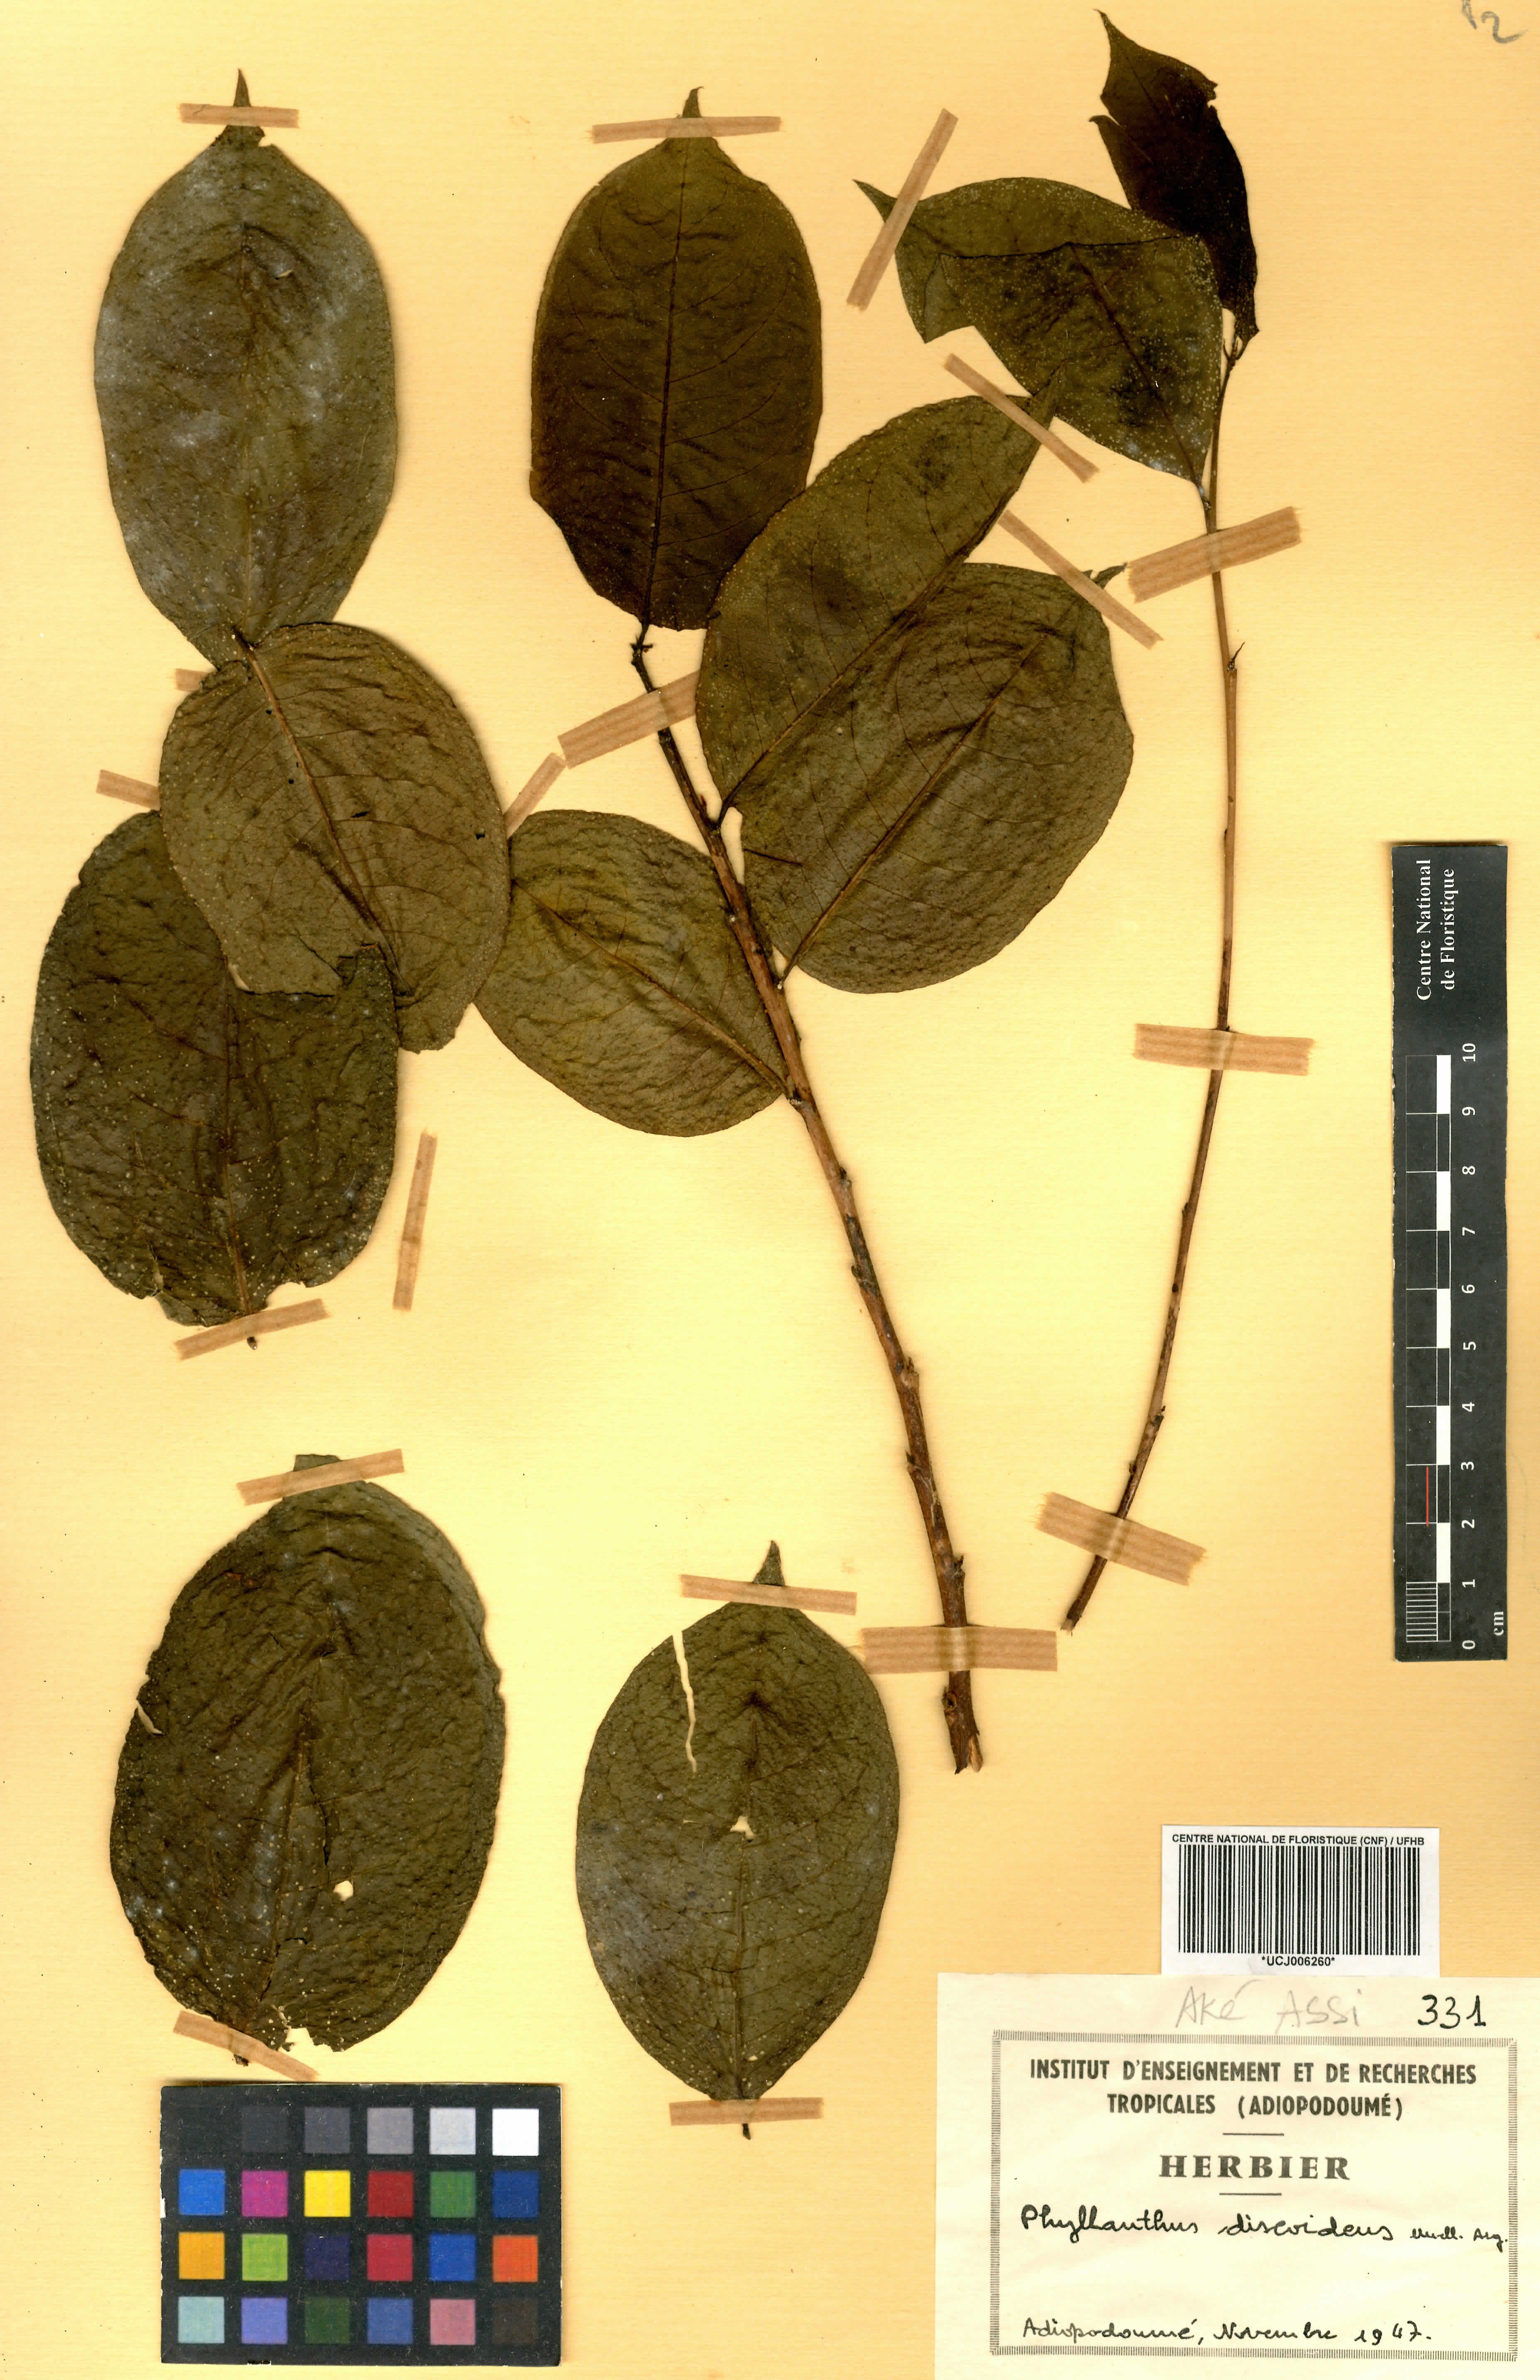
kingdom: Plantae
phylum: Tracheophyta
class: Magnoliopsida
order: Malpighiales
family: Phyllanthaceae
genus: Margaritaria
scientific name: Margaritaria discoidea
